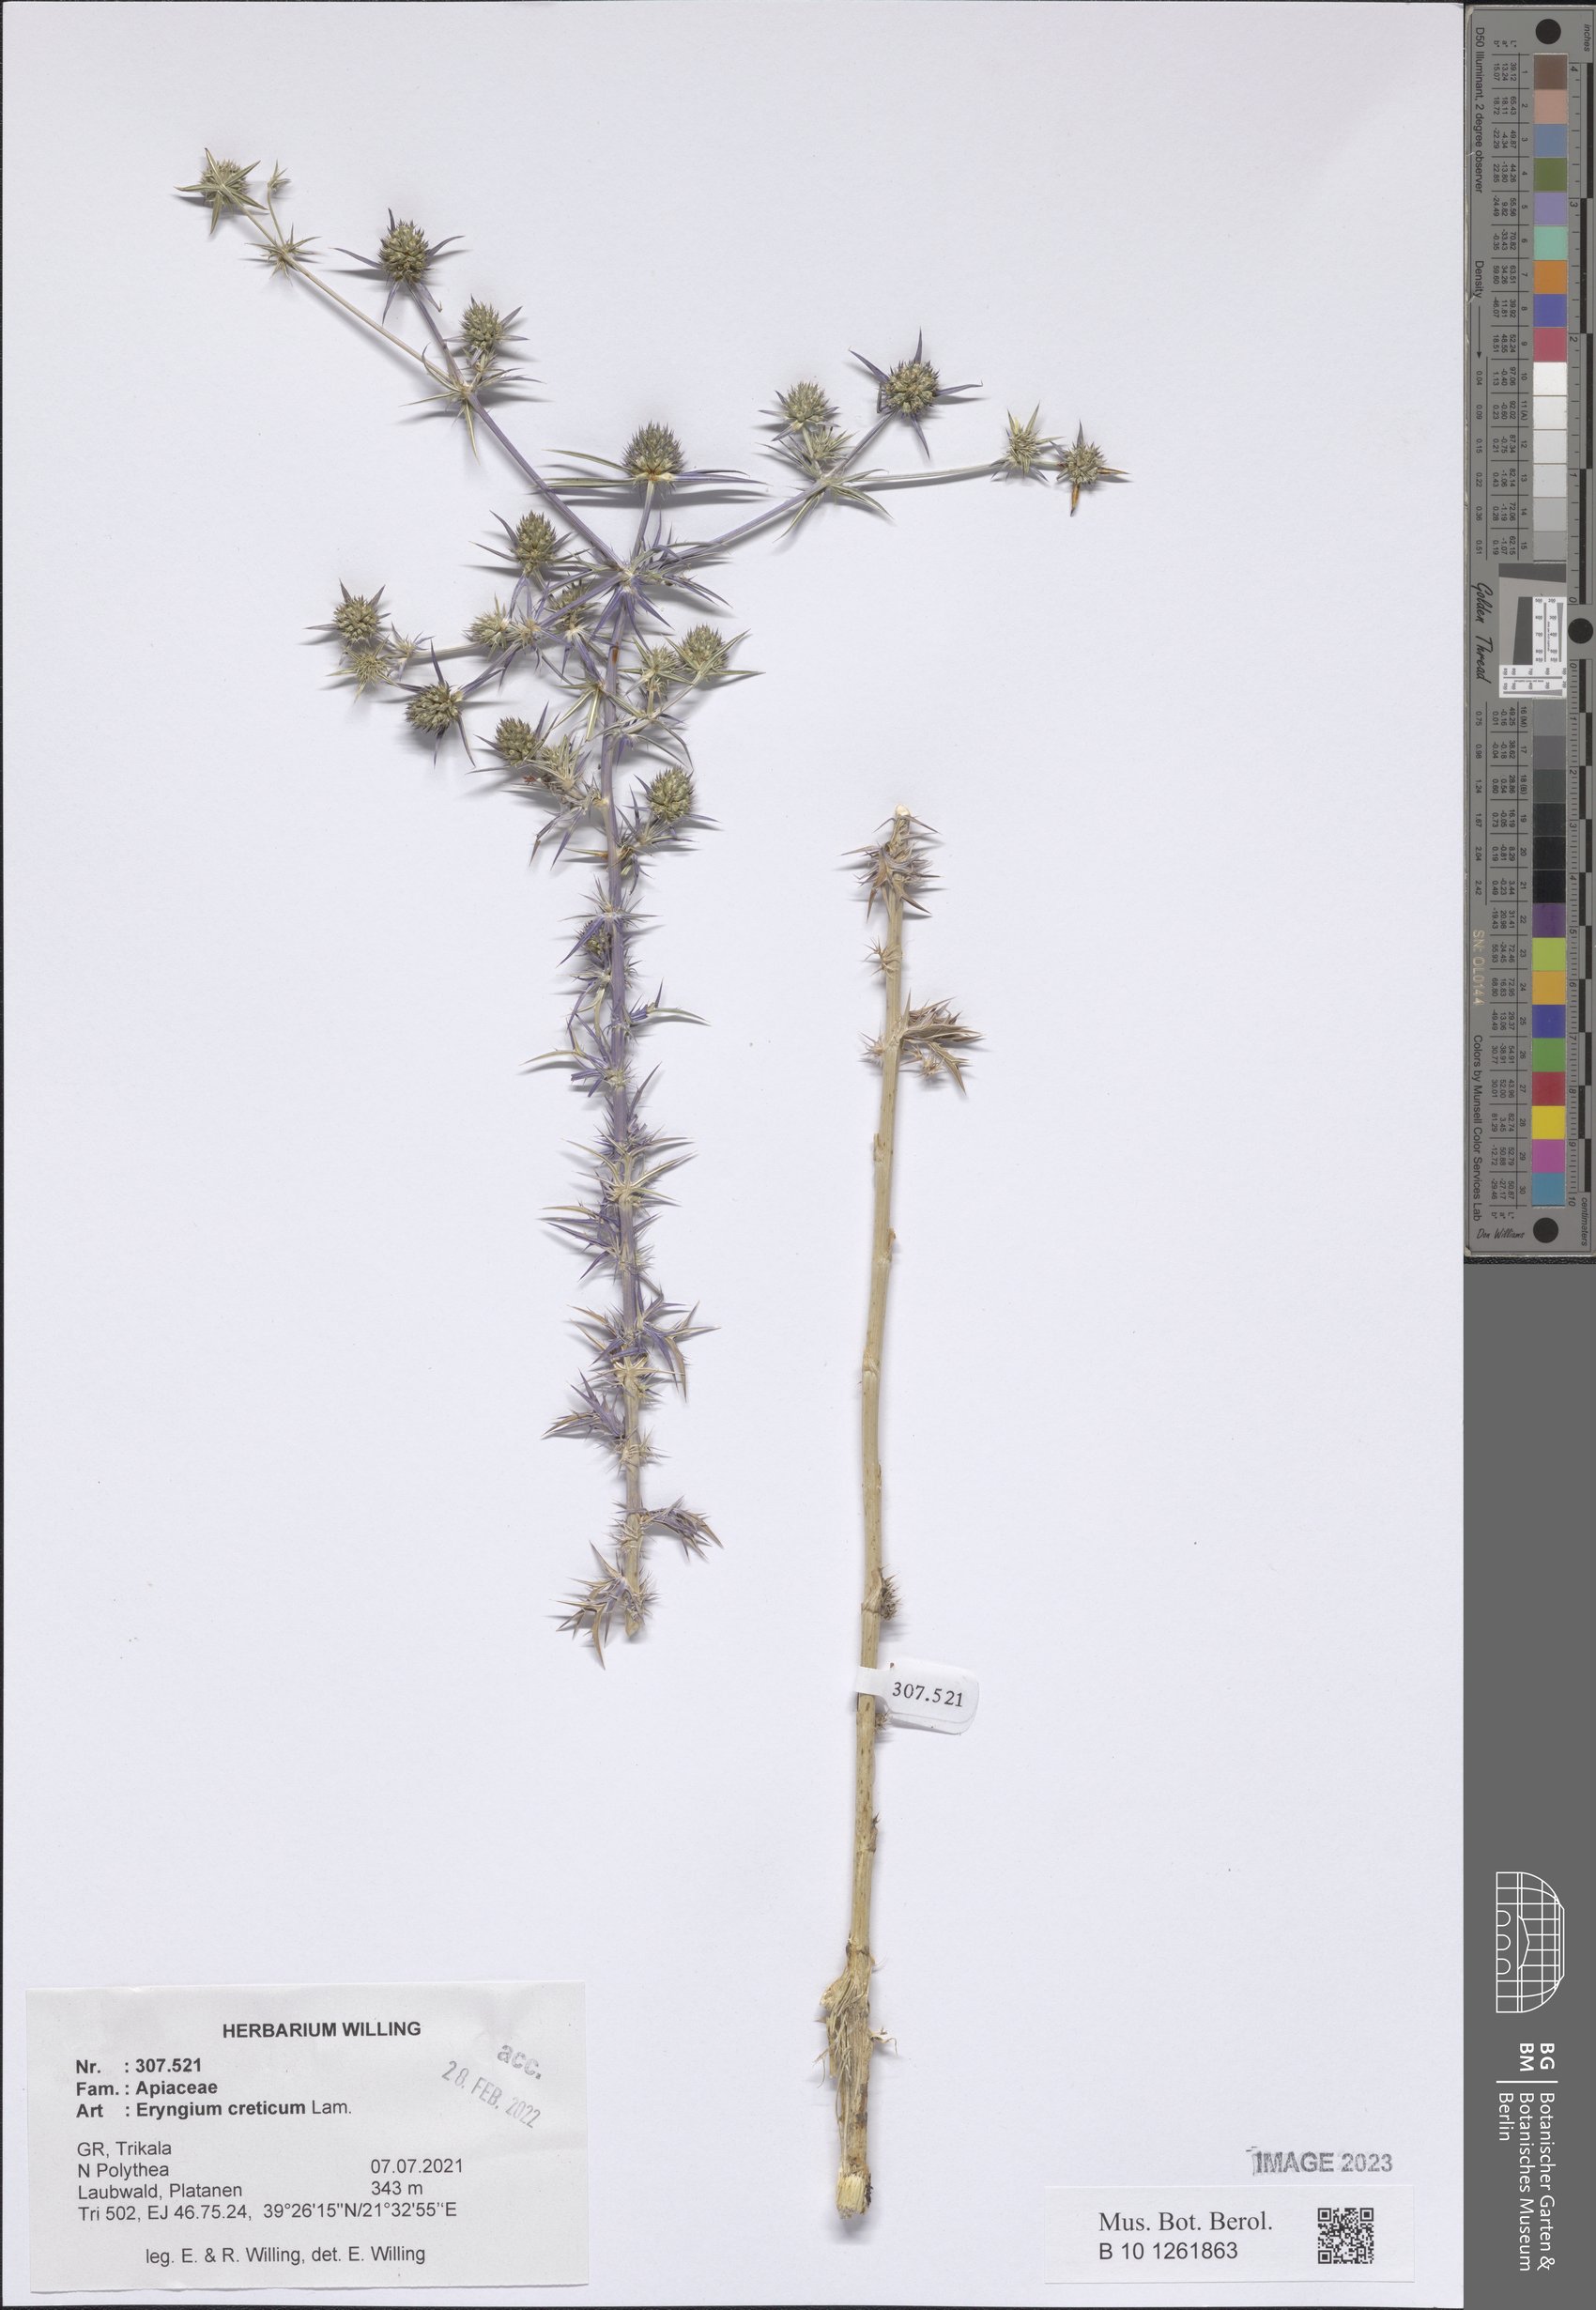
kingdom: Plantae
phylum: Tracheophyta
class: Magnoliopsida
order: Apiales
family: Apiaceae
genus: Eryngium
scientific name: Eryngium creticum
